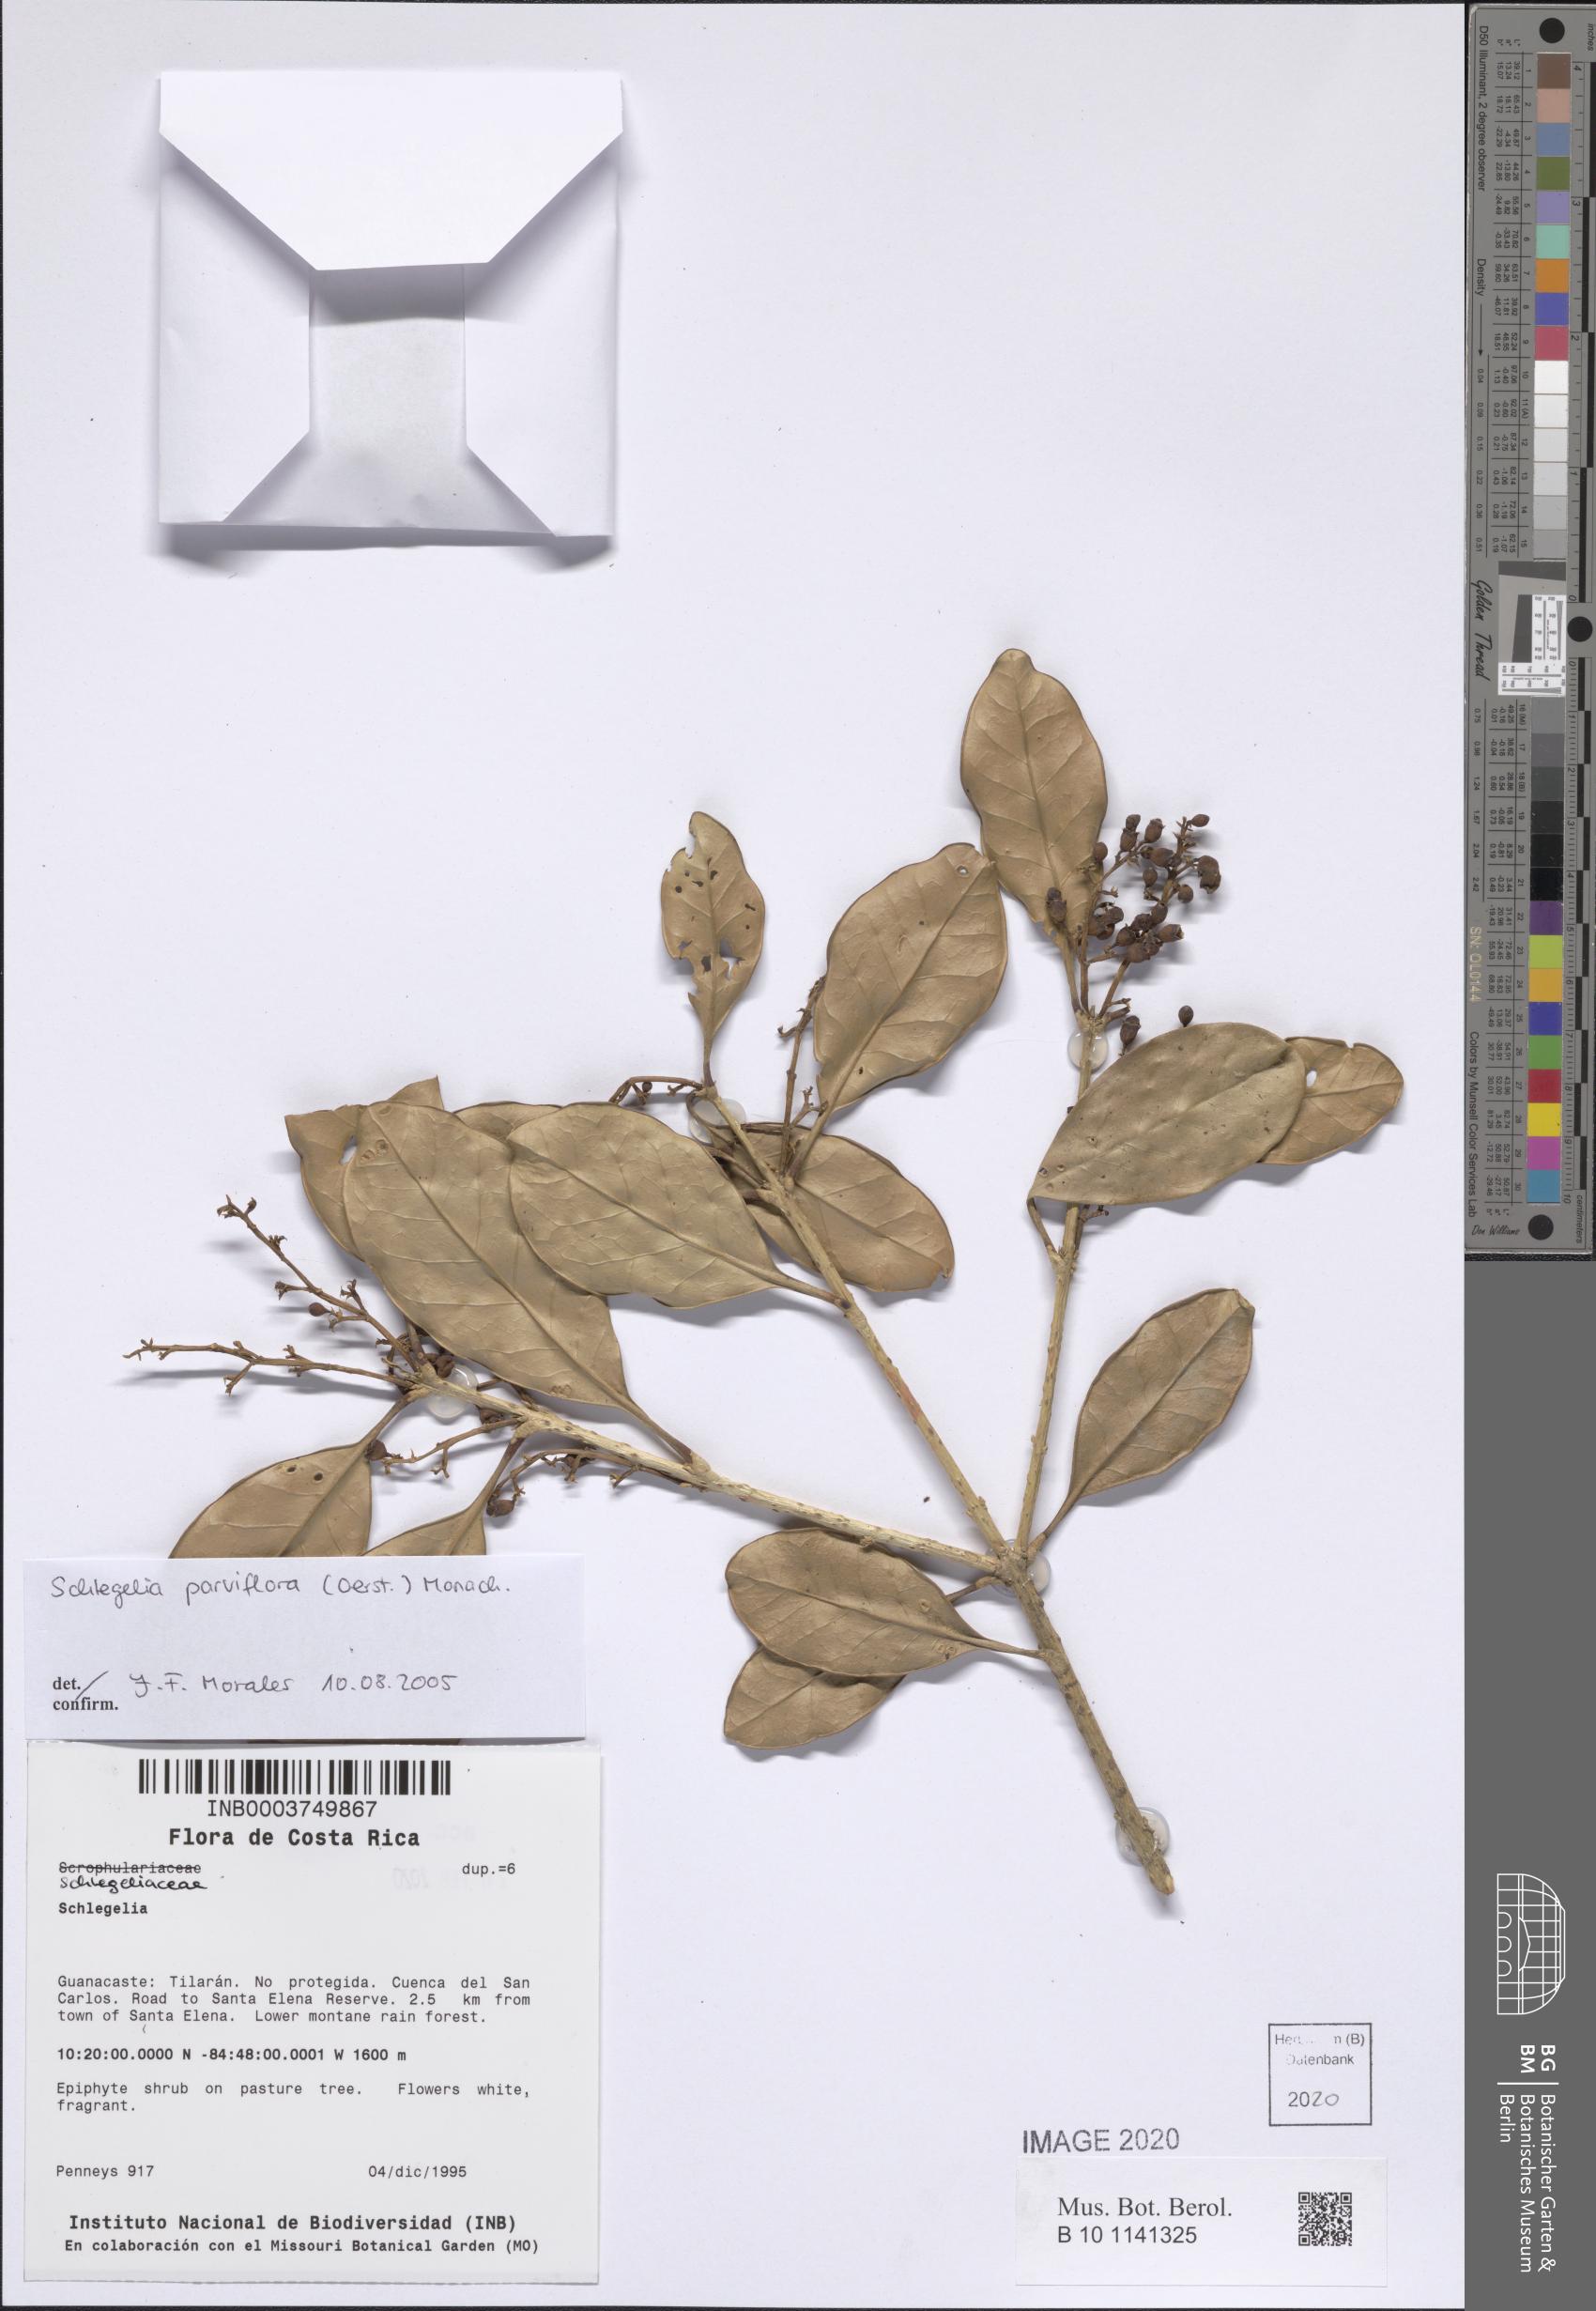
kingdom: Plantae
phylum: Tracheophyta
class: Magnoliopsida
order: Lamiales
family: Schlegeliaceae
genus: Schlegelia
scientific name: Schlegelia parviflora
